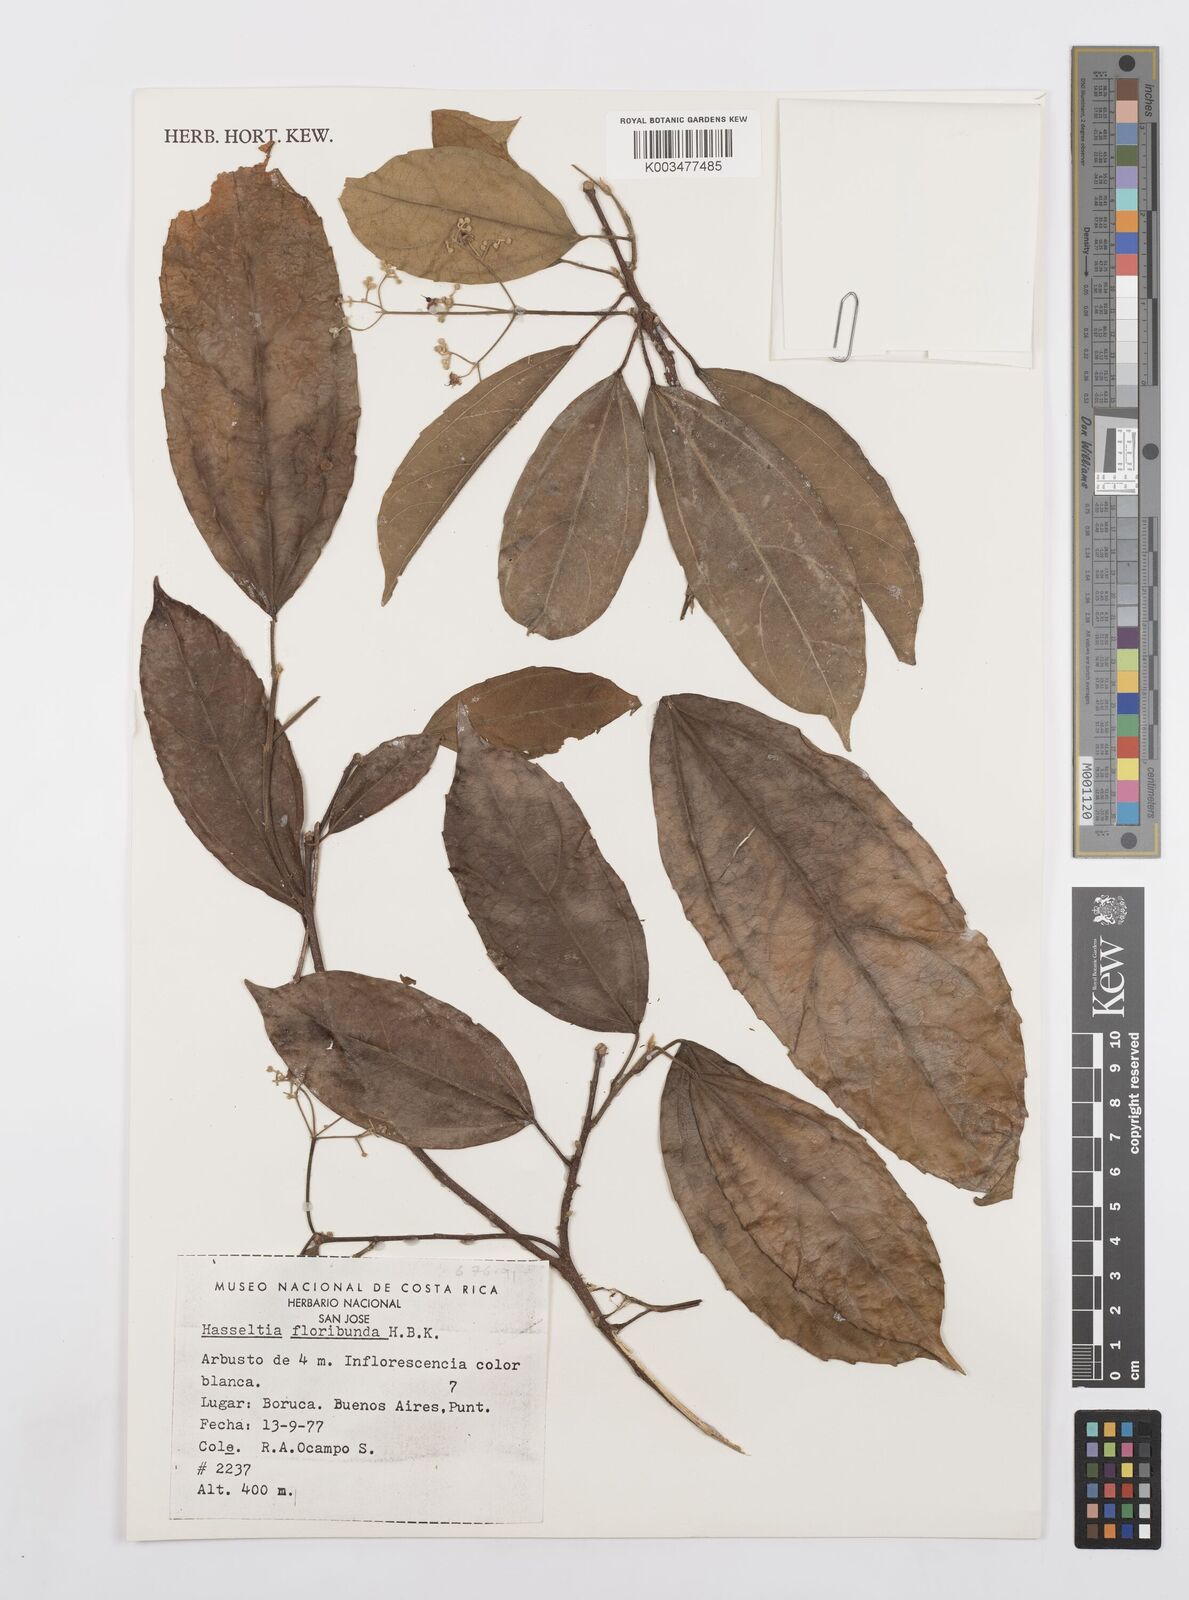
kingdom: Plantae
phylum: Tracheophyta
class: Magnoliopsida
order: Malpighiales
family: Salicaceae
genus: Hasseltia
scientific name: Hasseltia floribunda
